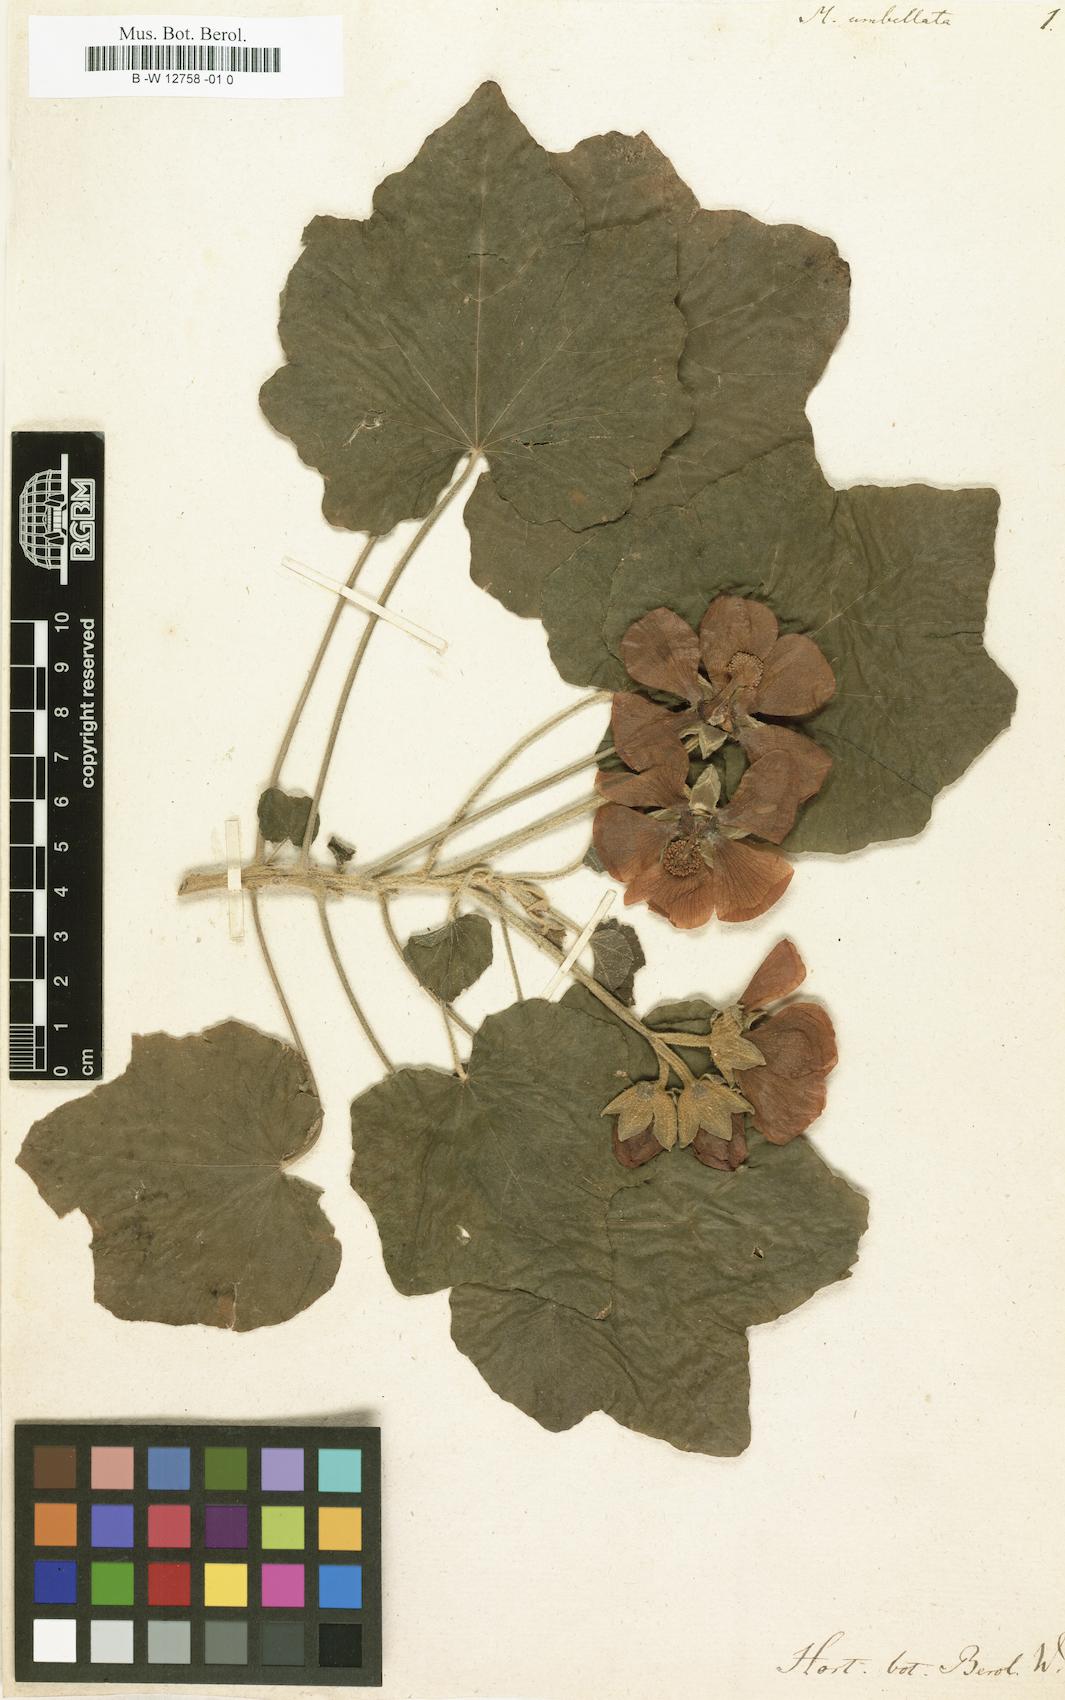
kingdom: Plantae
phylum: Tracheophyta
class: Magnoliopsida
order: Malvales
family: Malvaceae
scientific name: Malvaceae
